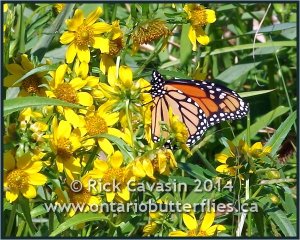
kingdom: Animalia
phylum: Arthropoda
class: Insecta
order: Lepidoptera
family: Nymphalidae
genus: Danaus
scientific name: Danaus plexippus
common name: Monarch
